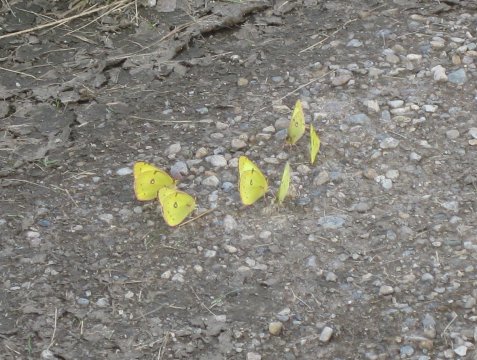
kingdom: Animalia
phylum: Arthropoda
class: Insecta
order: Lepidoptera
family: Pieridae
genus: Colias
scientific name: Colias philodice
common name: Clouded Sulphur
